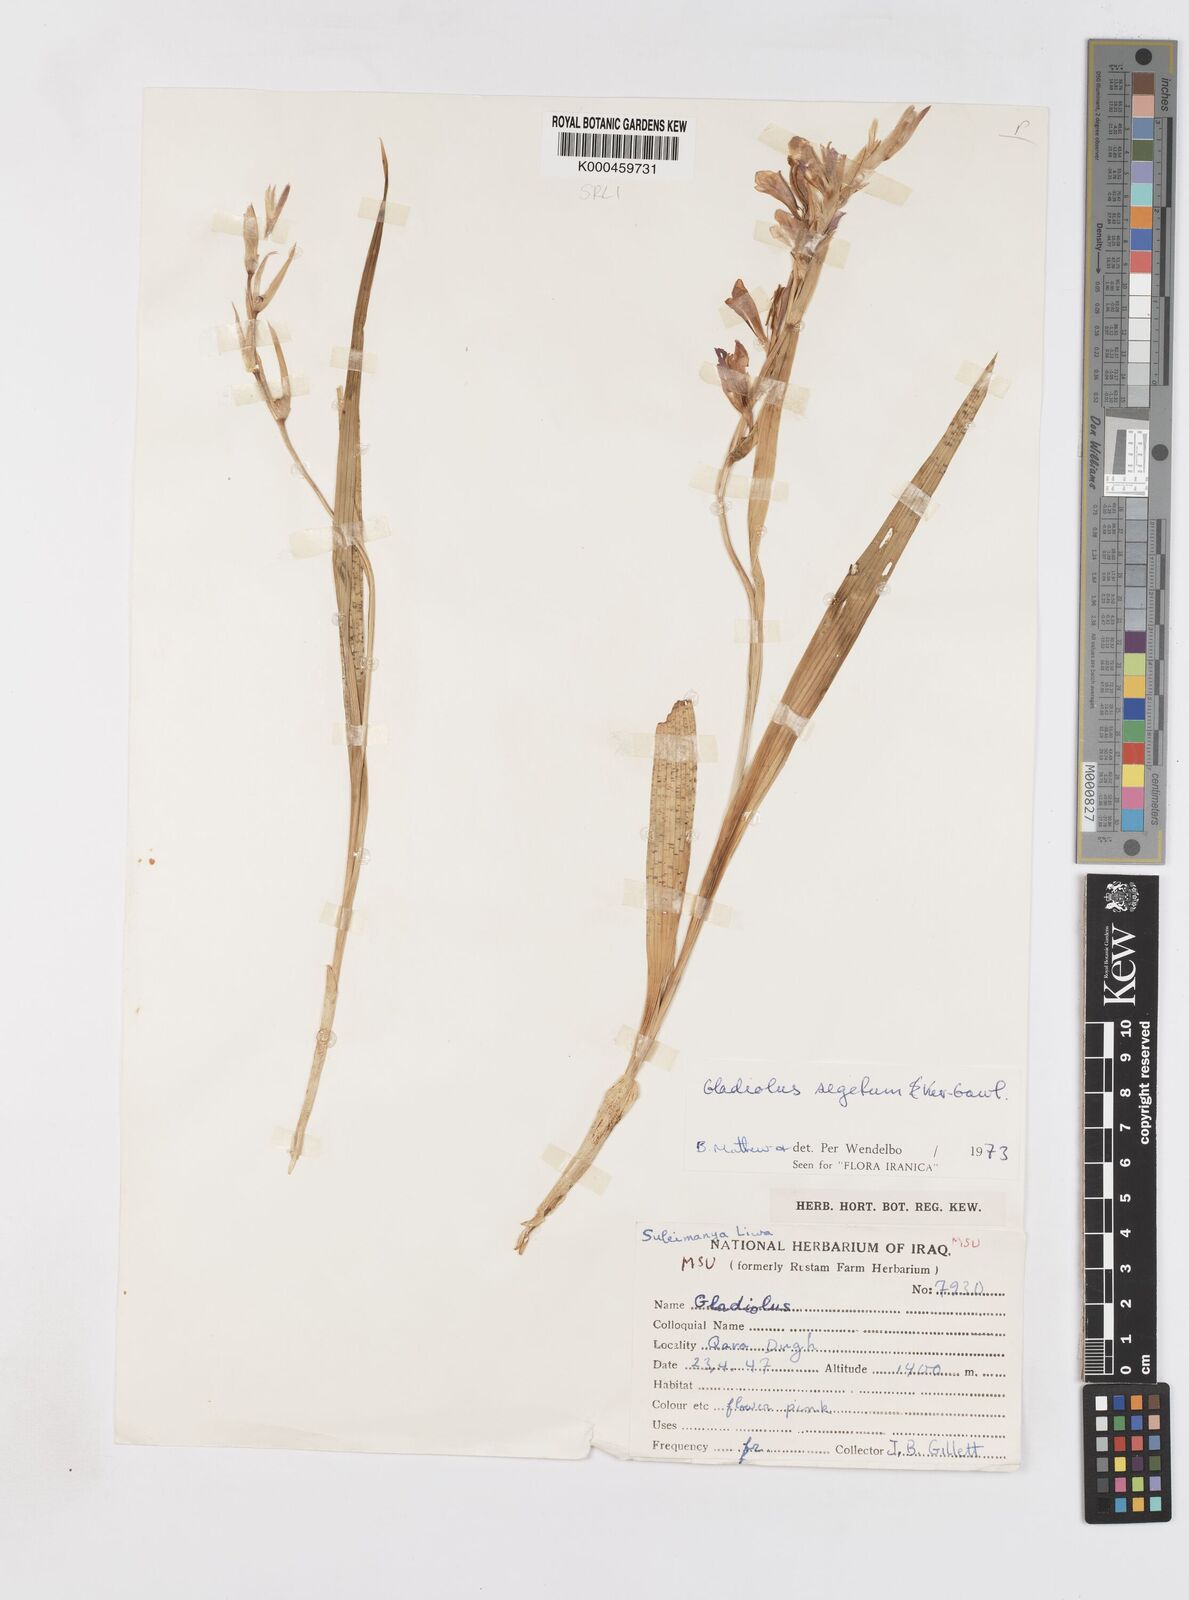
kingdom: Plantae
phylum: Tracheophyta
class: Liliopsida
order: Asparagales
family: Iridaceae
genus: Gladiolus
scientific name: Gladiolus italicus
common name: Field gladiolus
